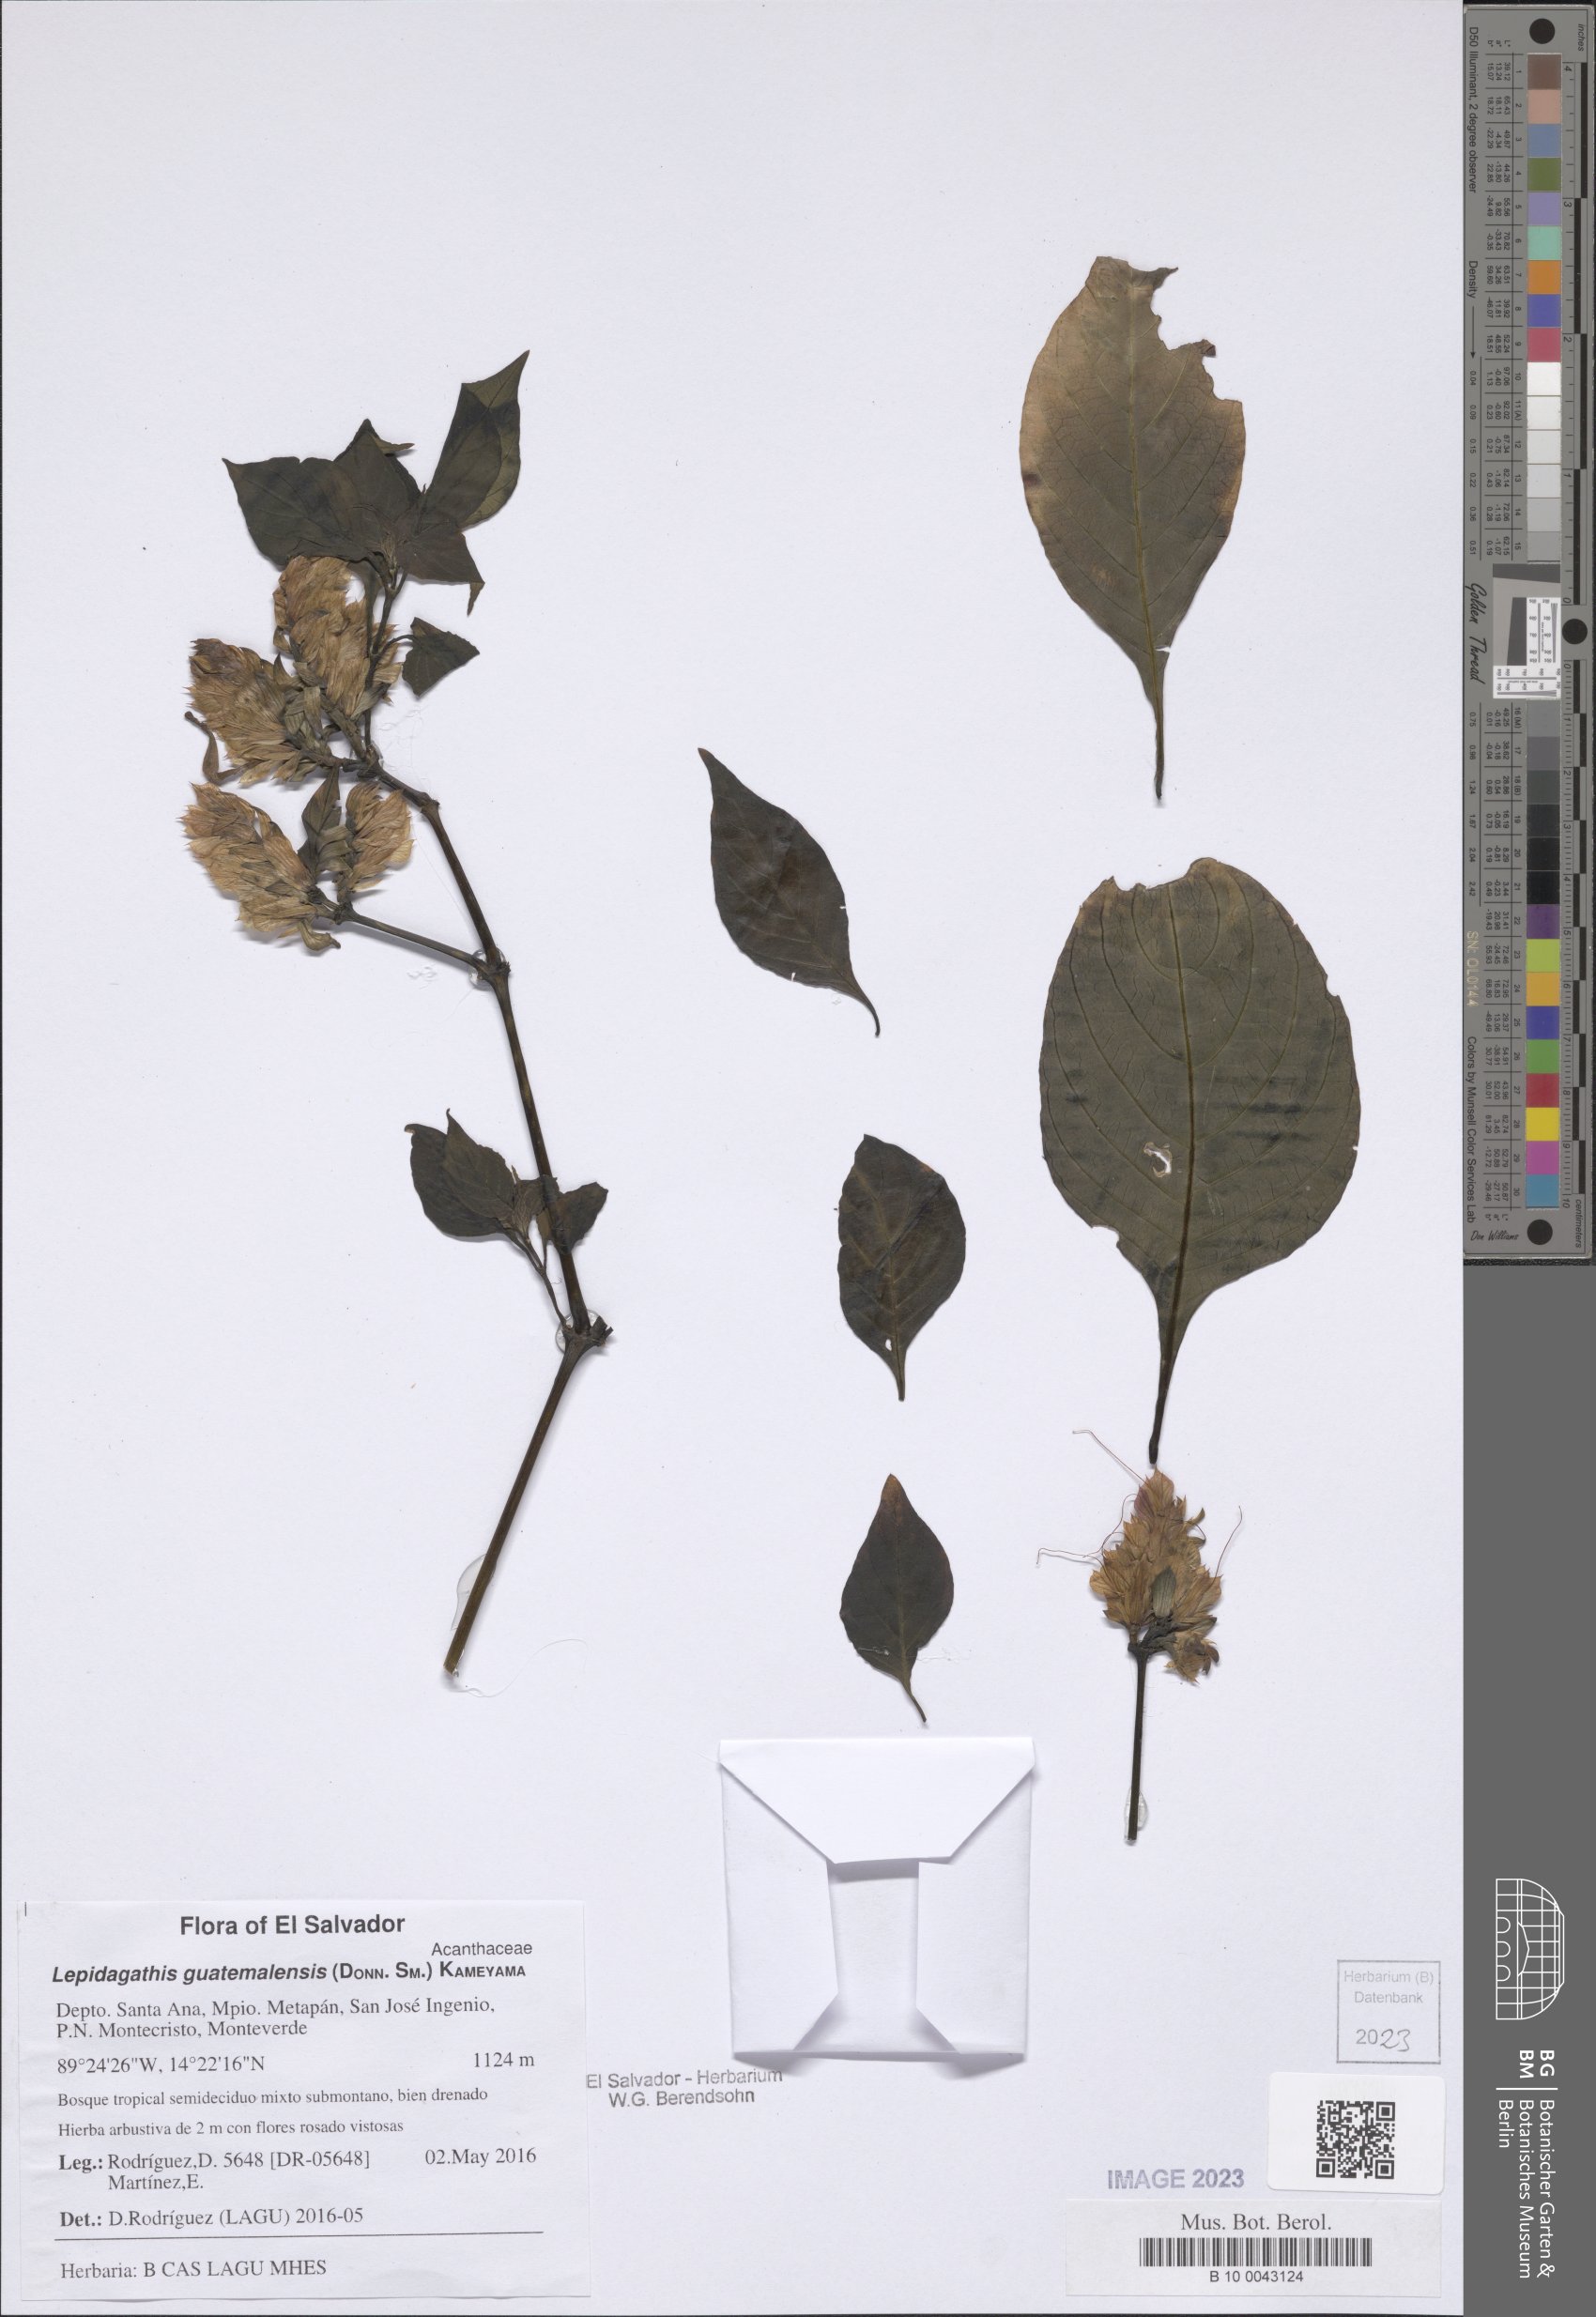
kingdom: Plantae
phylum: Tracheophyta
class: Magnoliopsida
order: Lamiales
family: Acanthaceae
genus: Lepidagathis
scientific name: Lepidagathis guatemalensis
